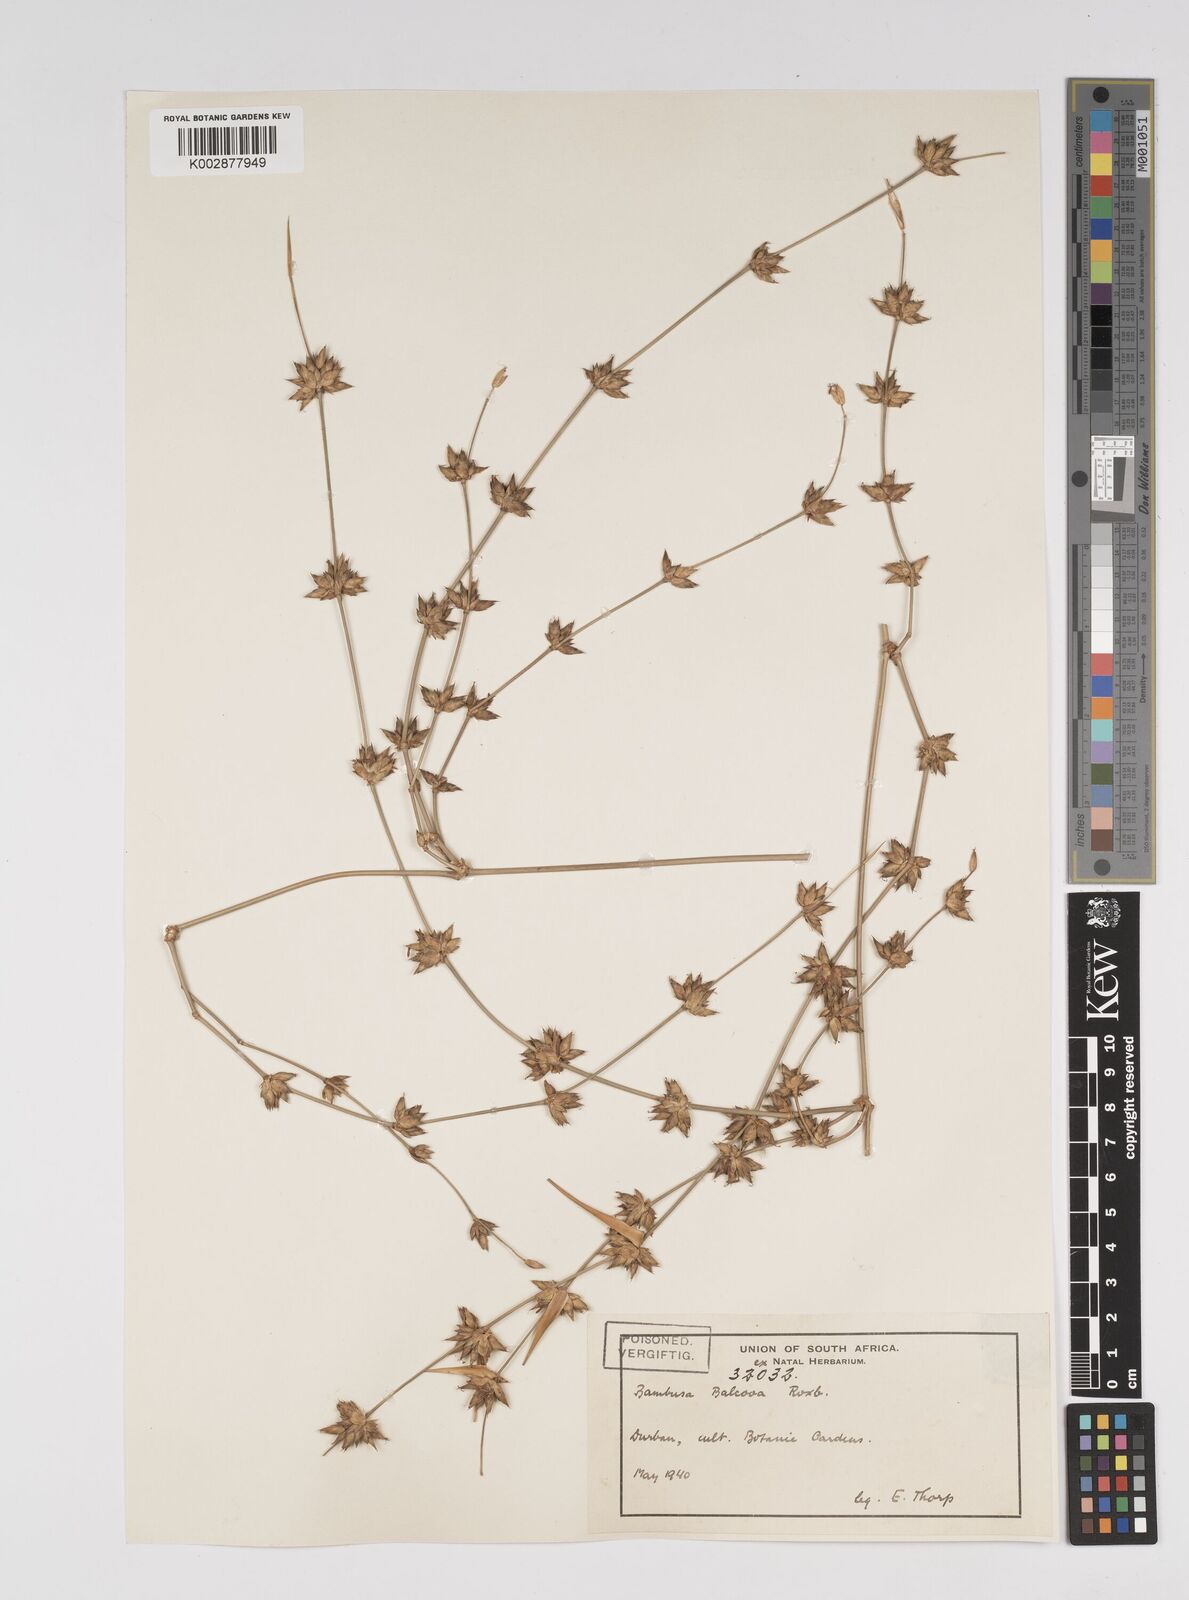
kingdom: Plantae
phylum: Tracheophyta
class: Liliopsida
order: Poales
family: Poaceae
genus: Bambusa
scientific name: Bambusa balcooa
